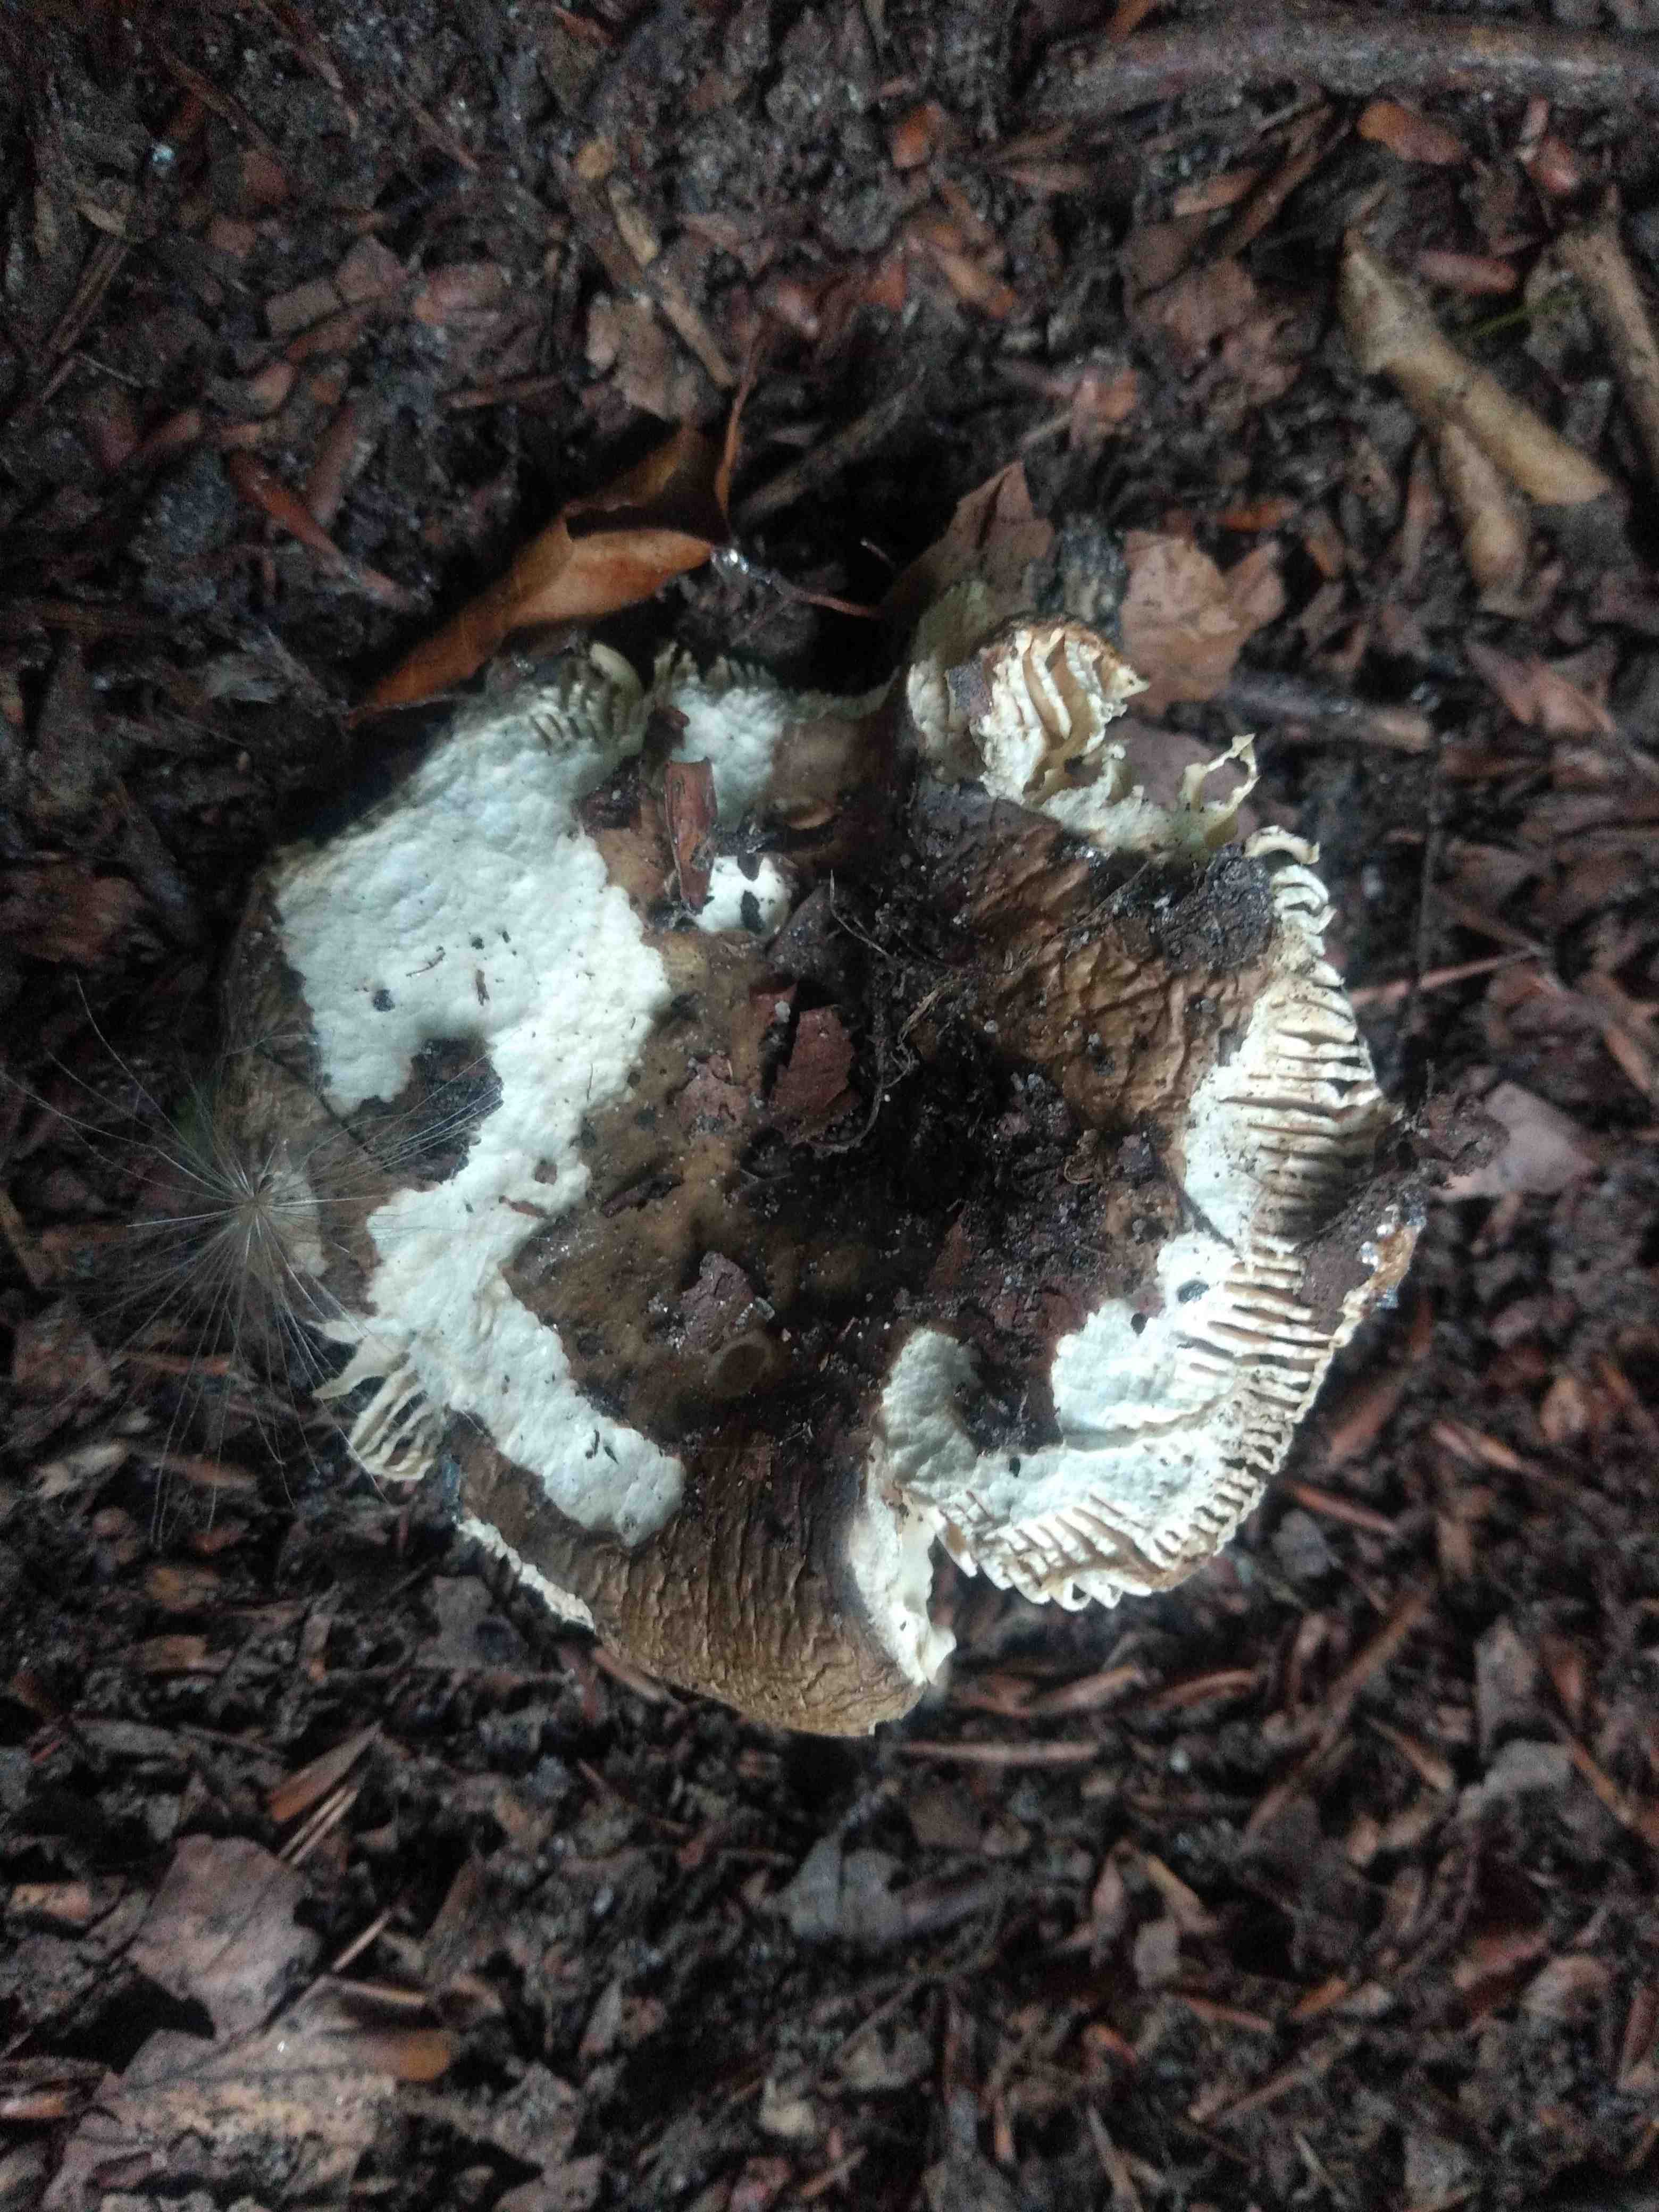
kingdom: Fungi
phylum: Basidiomycota
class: Agaricomycetes
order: Russulales
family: Russulaceae
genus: Russula
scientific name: Russula
